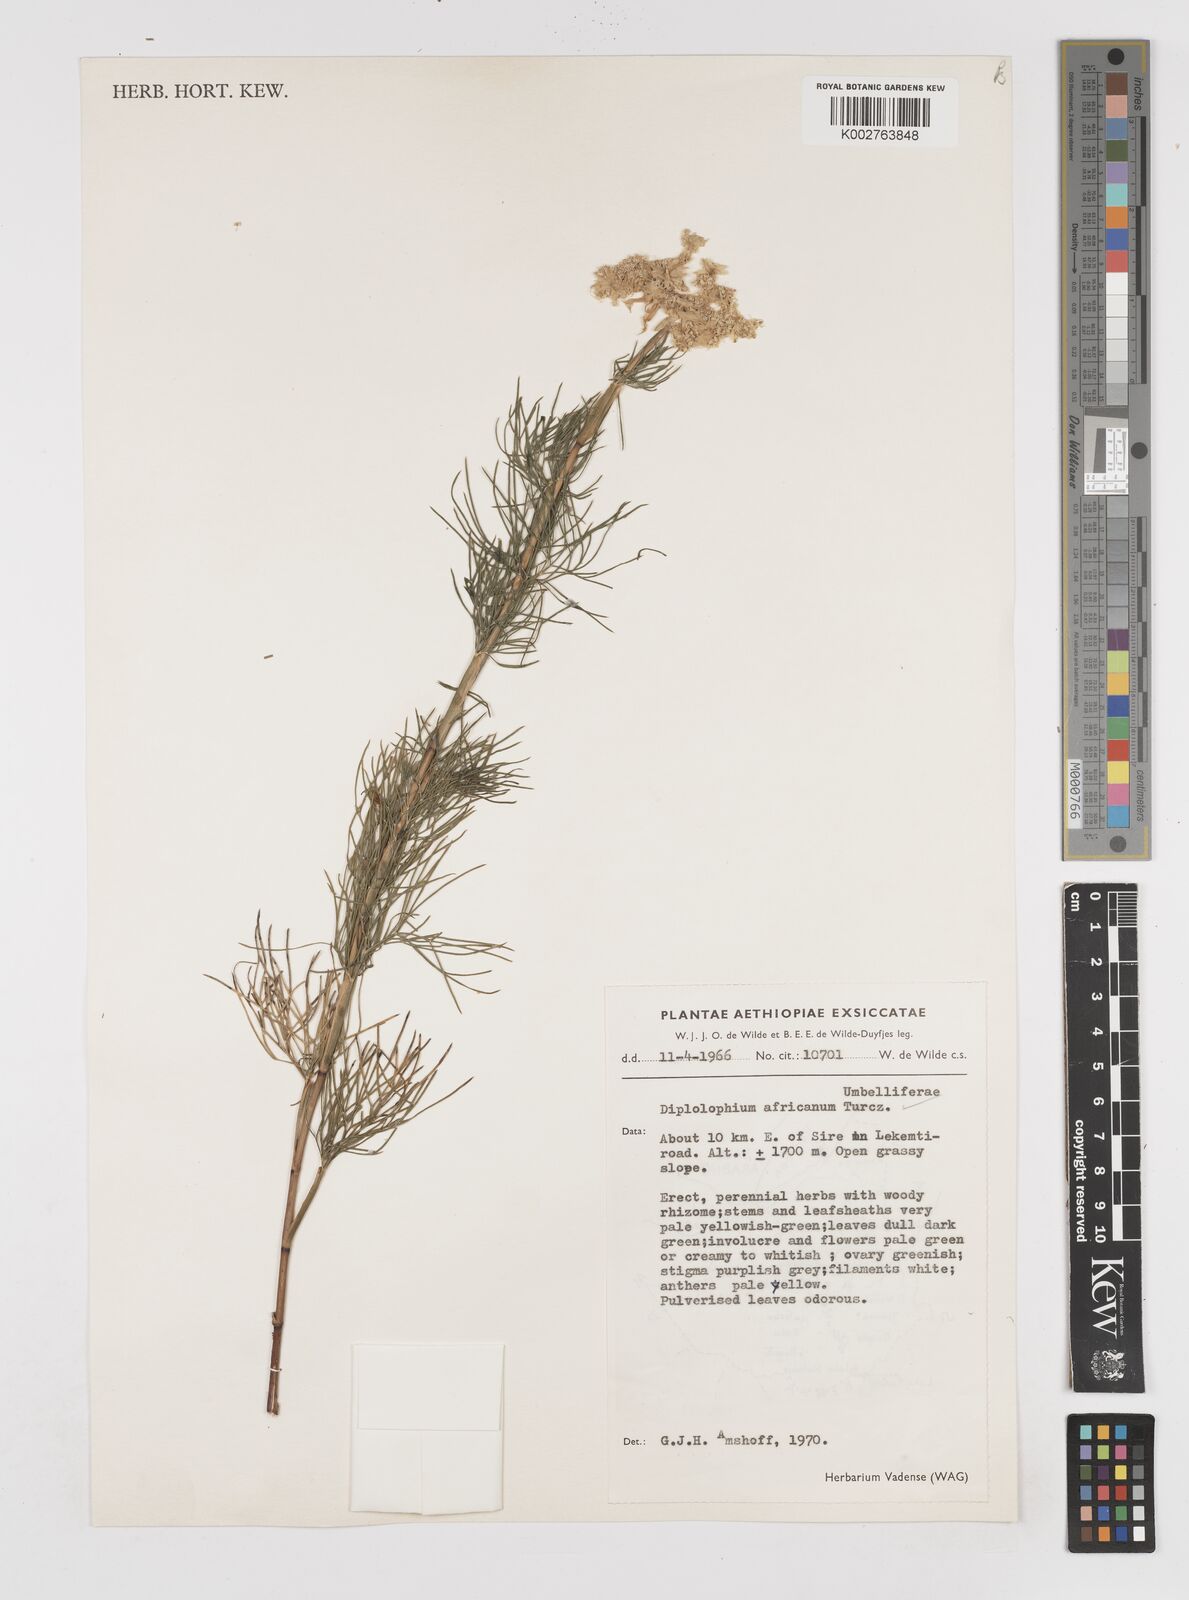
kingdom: Plantae
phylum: Tracheophyta
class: Magnoliopsida
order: Apiales
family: Apiaceae
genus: Diplolophium
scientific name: Diplolophium africanum
